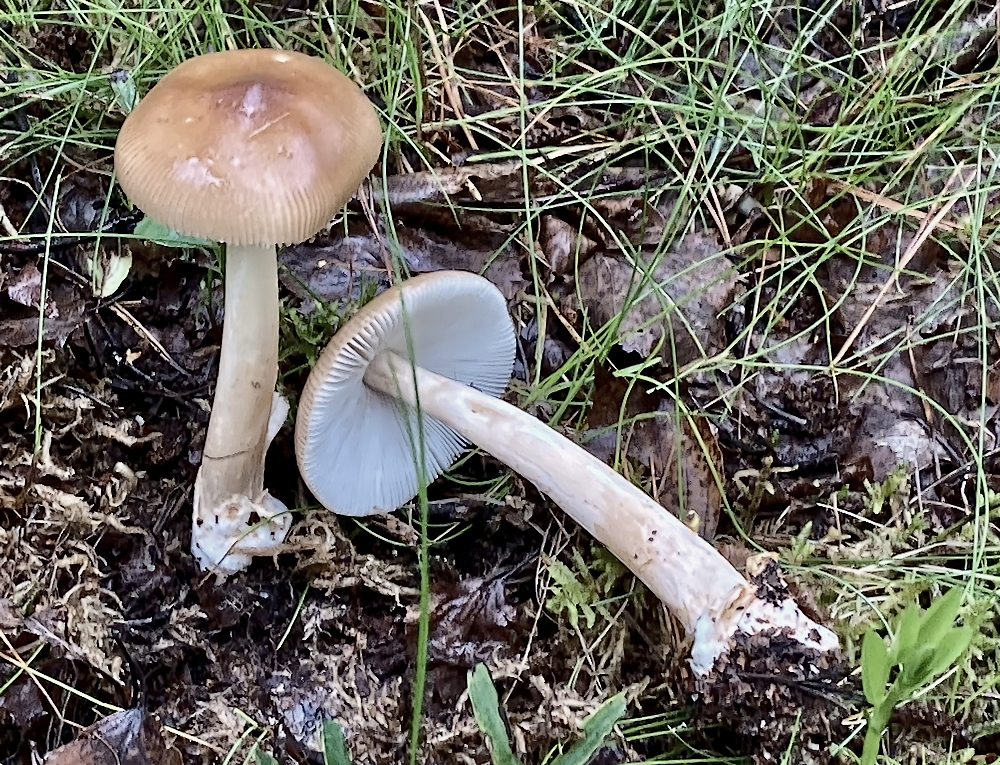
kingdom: Fungi
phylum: Basidiomycota
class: Agaricomycetes
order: Agaricales
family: Amanitaceae
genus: Amanita
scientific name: Amanita fulva
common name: brun kam-fluesvamp
